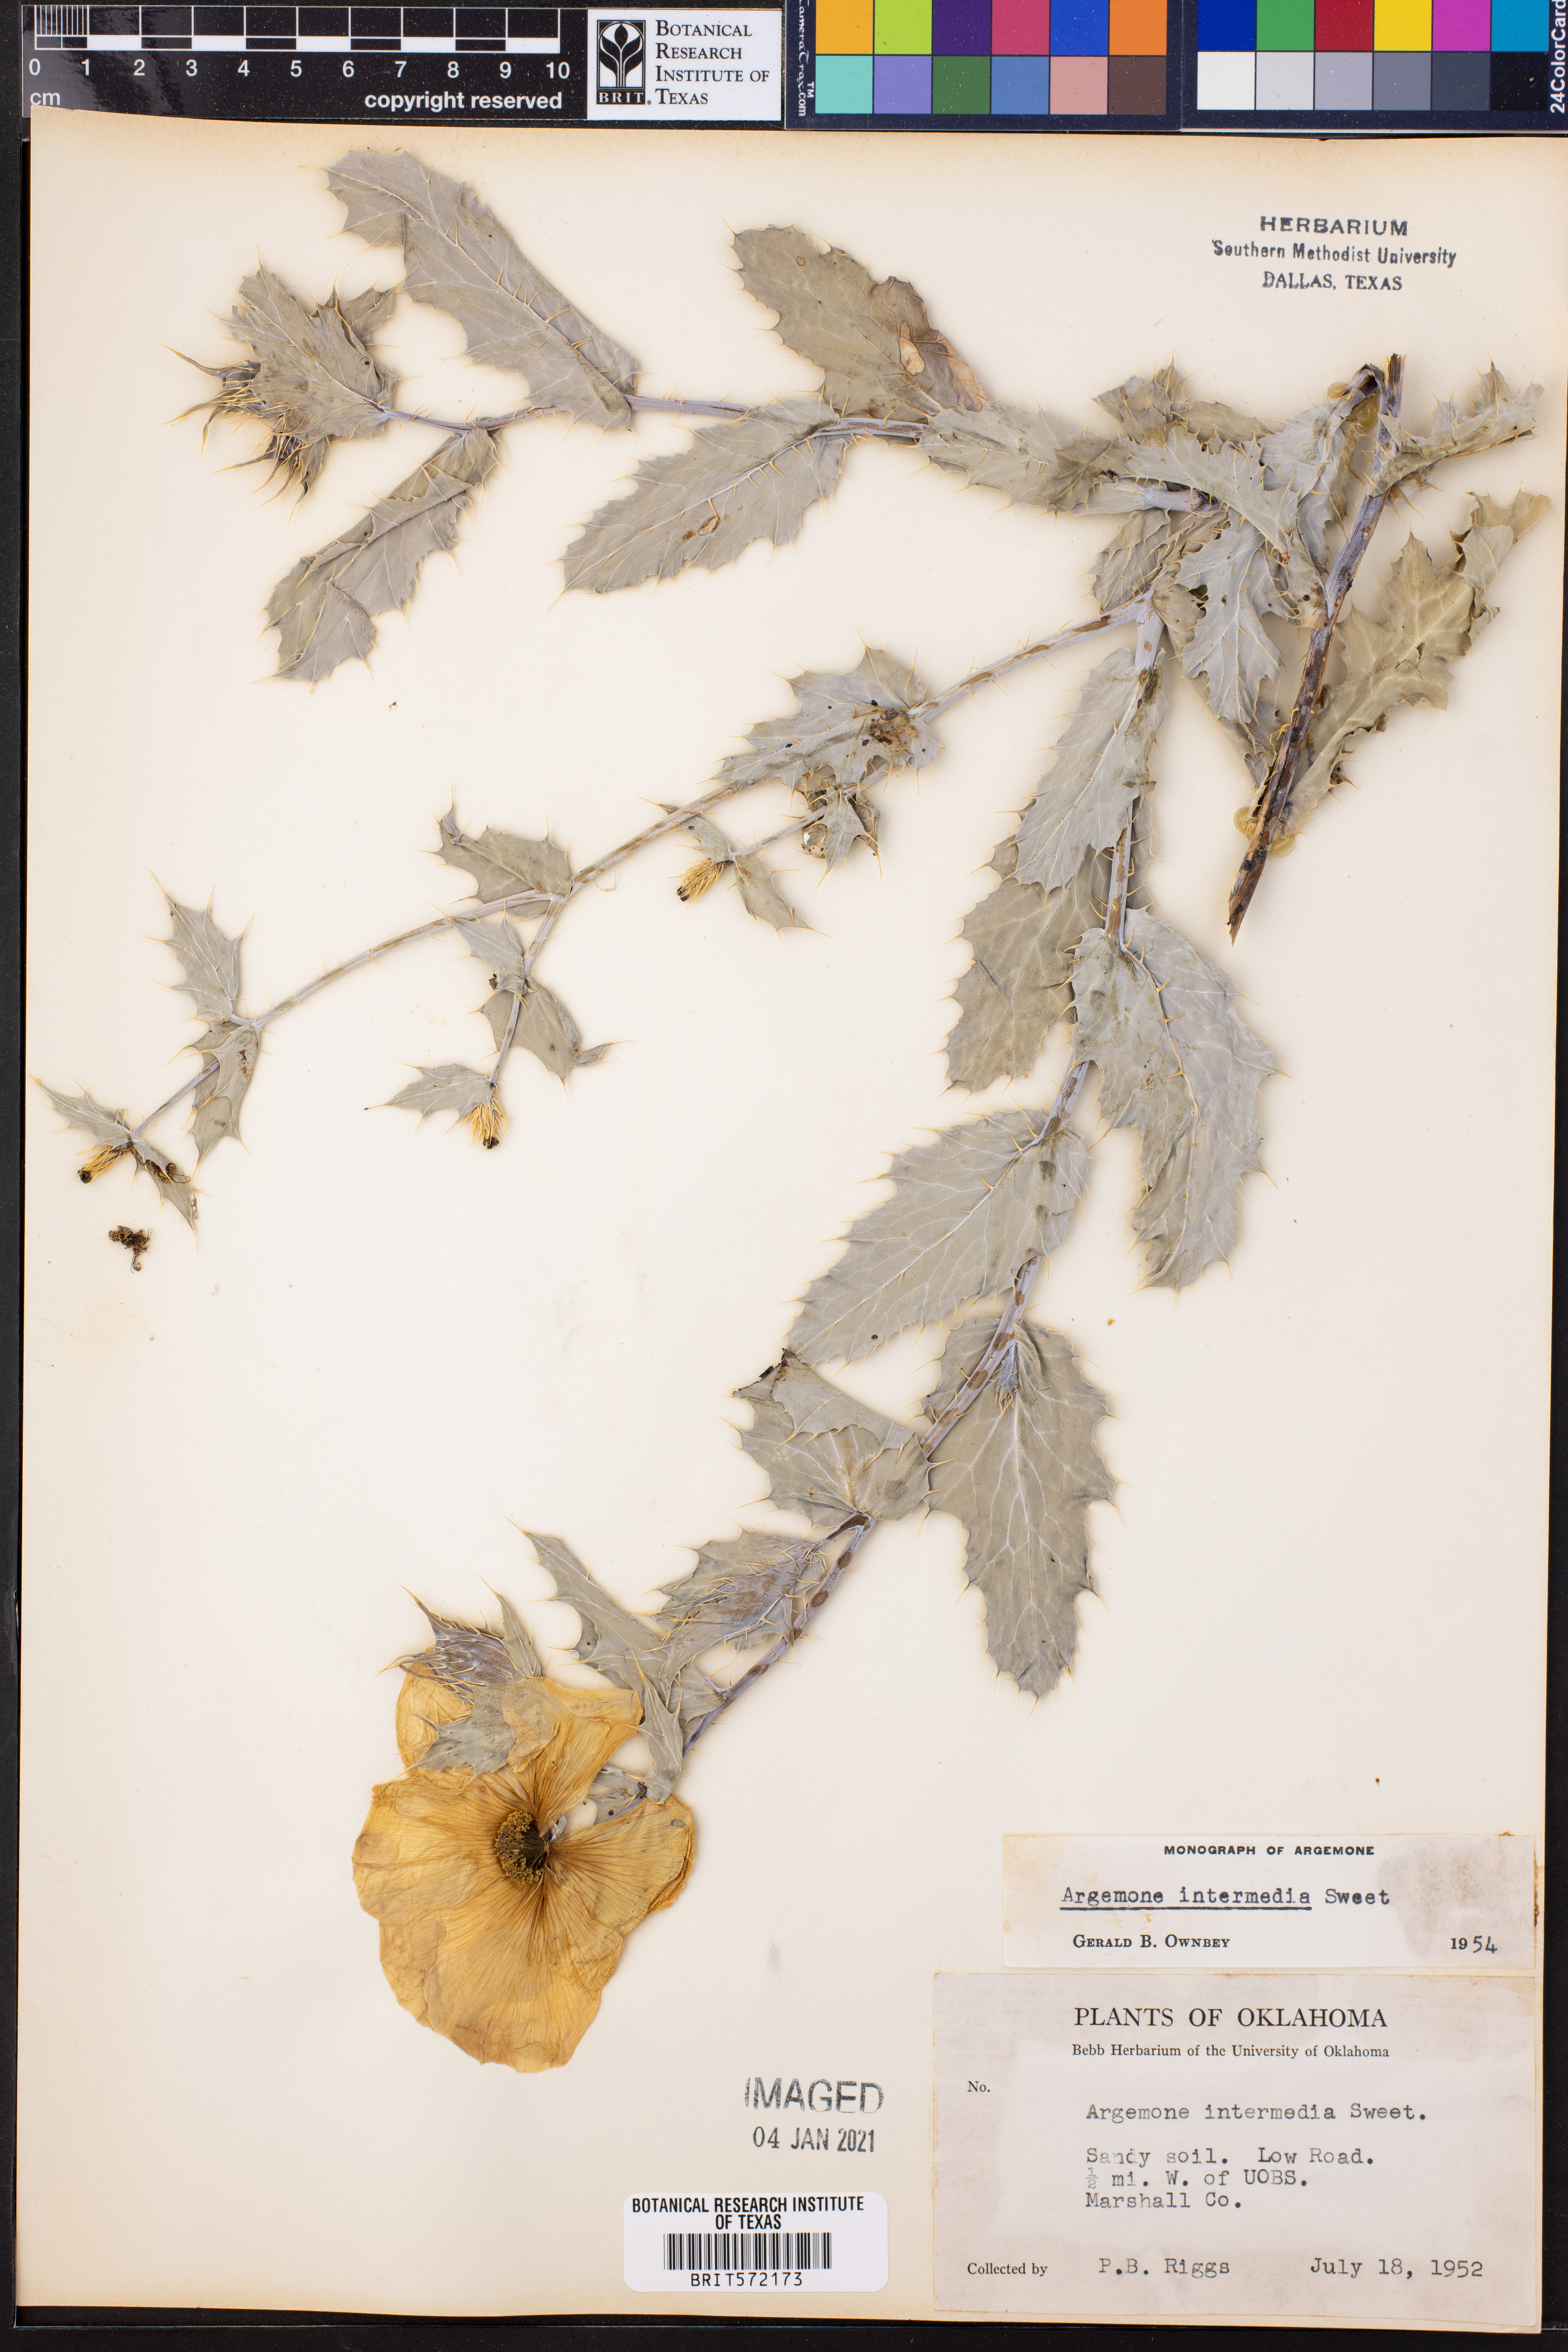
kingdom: Plantae
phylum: Tracheophyta
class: Magnoliopsida
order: Ranunculales
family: Papaveraceae
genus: Argemone
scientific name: Argemone intermedia
